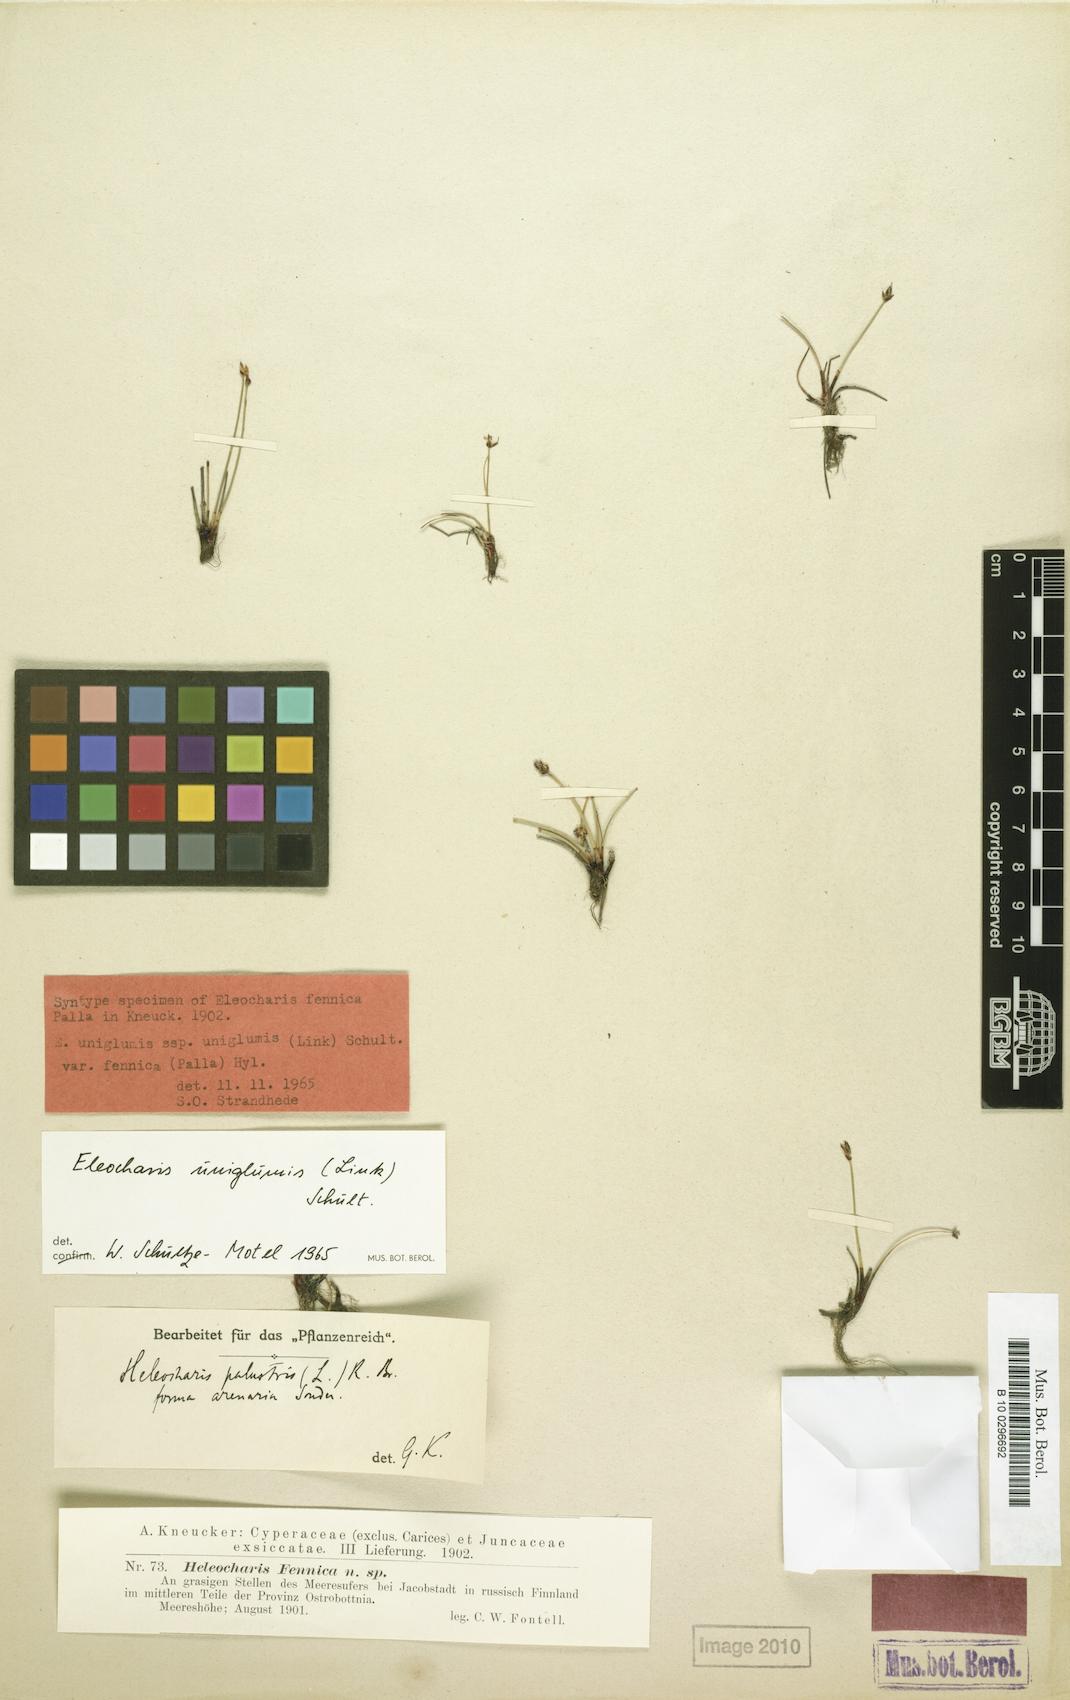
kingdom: Plantae
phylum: Tracheophyta
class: Liliopsida
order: Poales
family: Cyperaceae
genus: Eleocharis
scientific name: Eleocharis uniglumis
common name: Slender spike-rush
